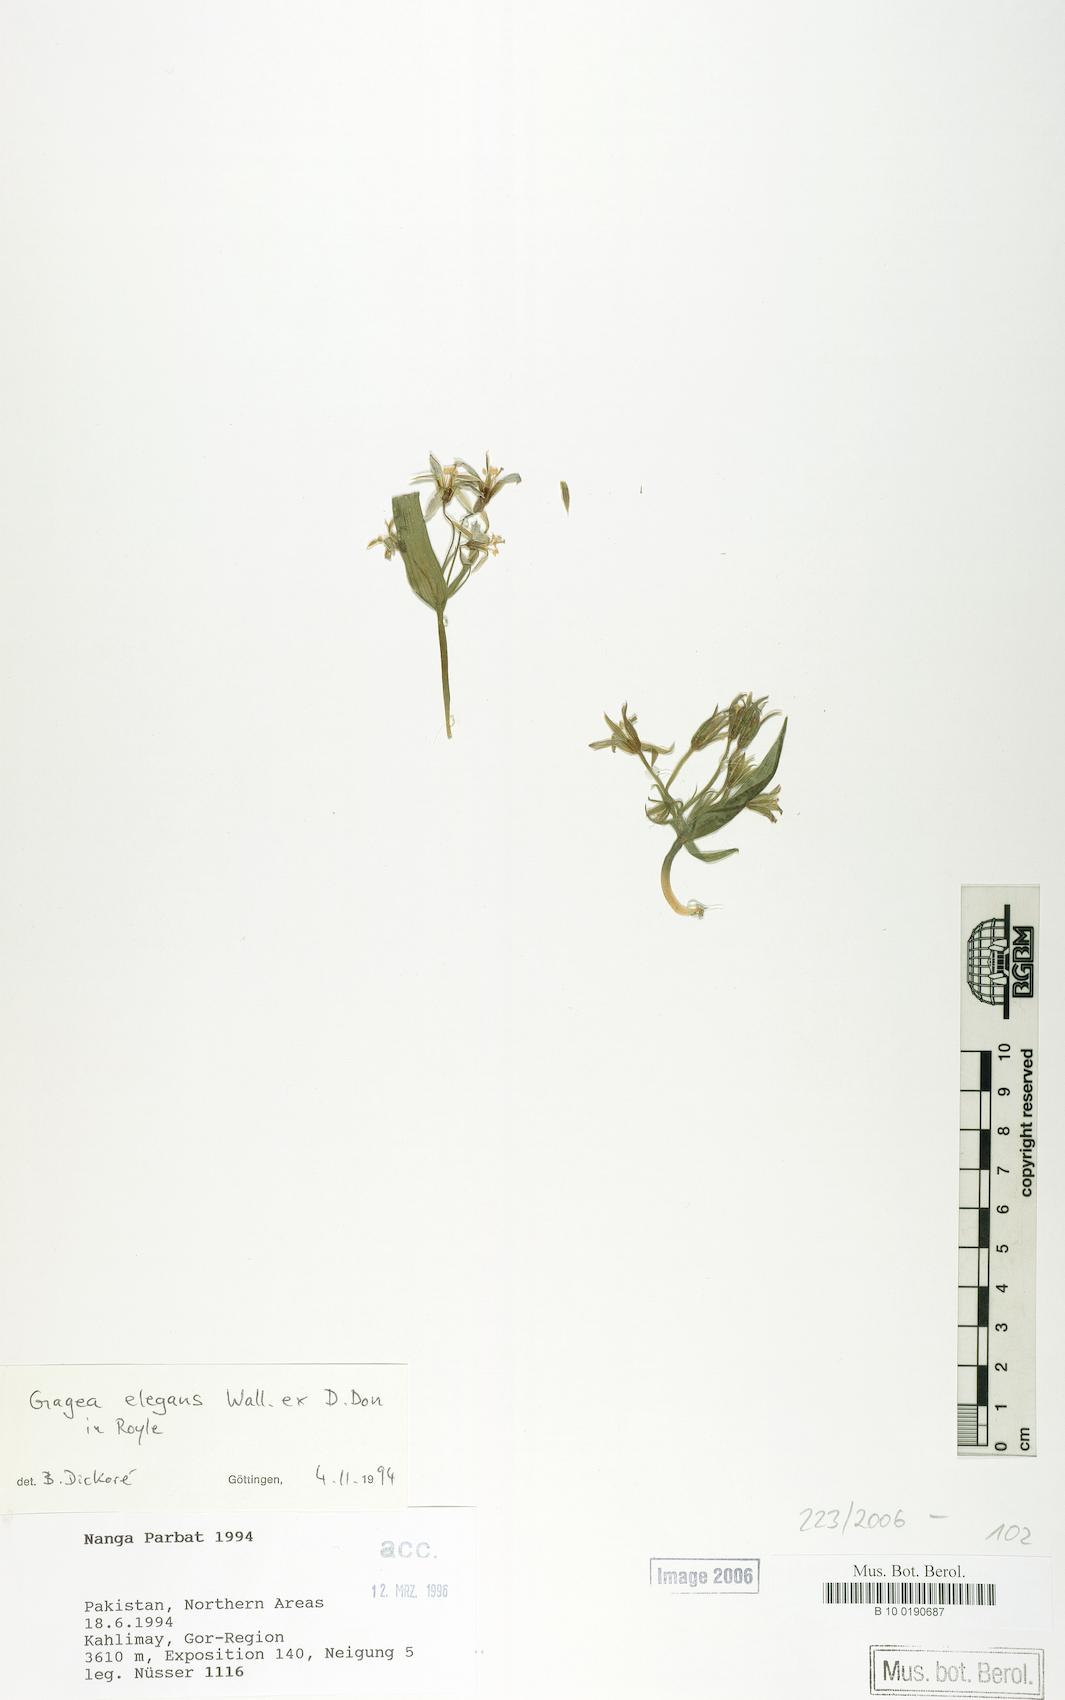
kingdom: Plantae
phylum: Tracheophyta
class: Liliopsida
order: Liliales
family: Liliaceae
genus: Gagea
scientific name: Gagea elegans
